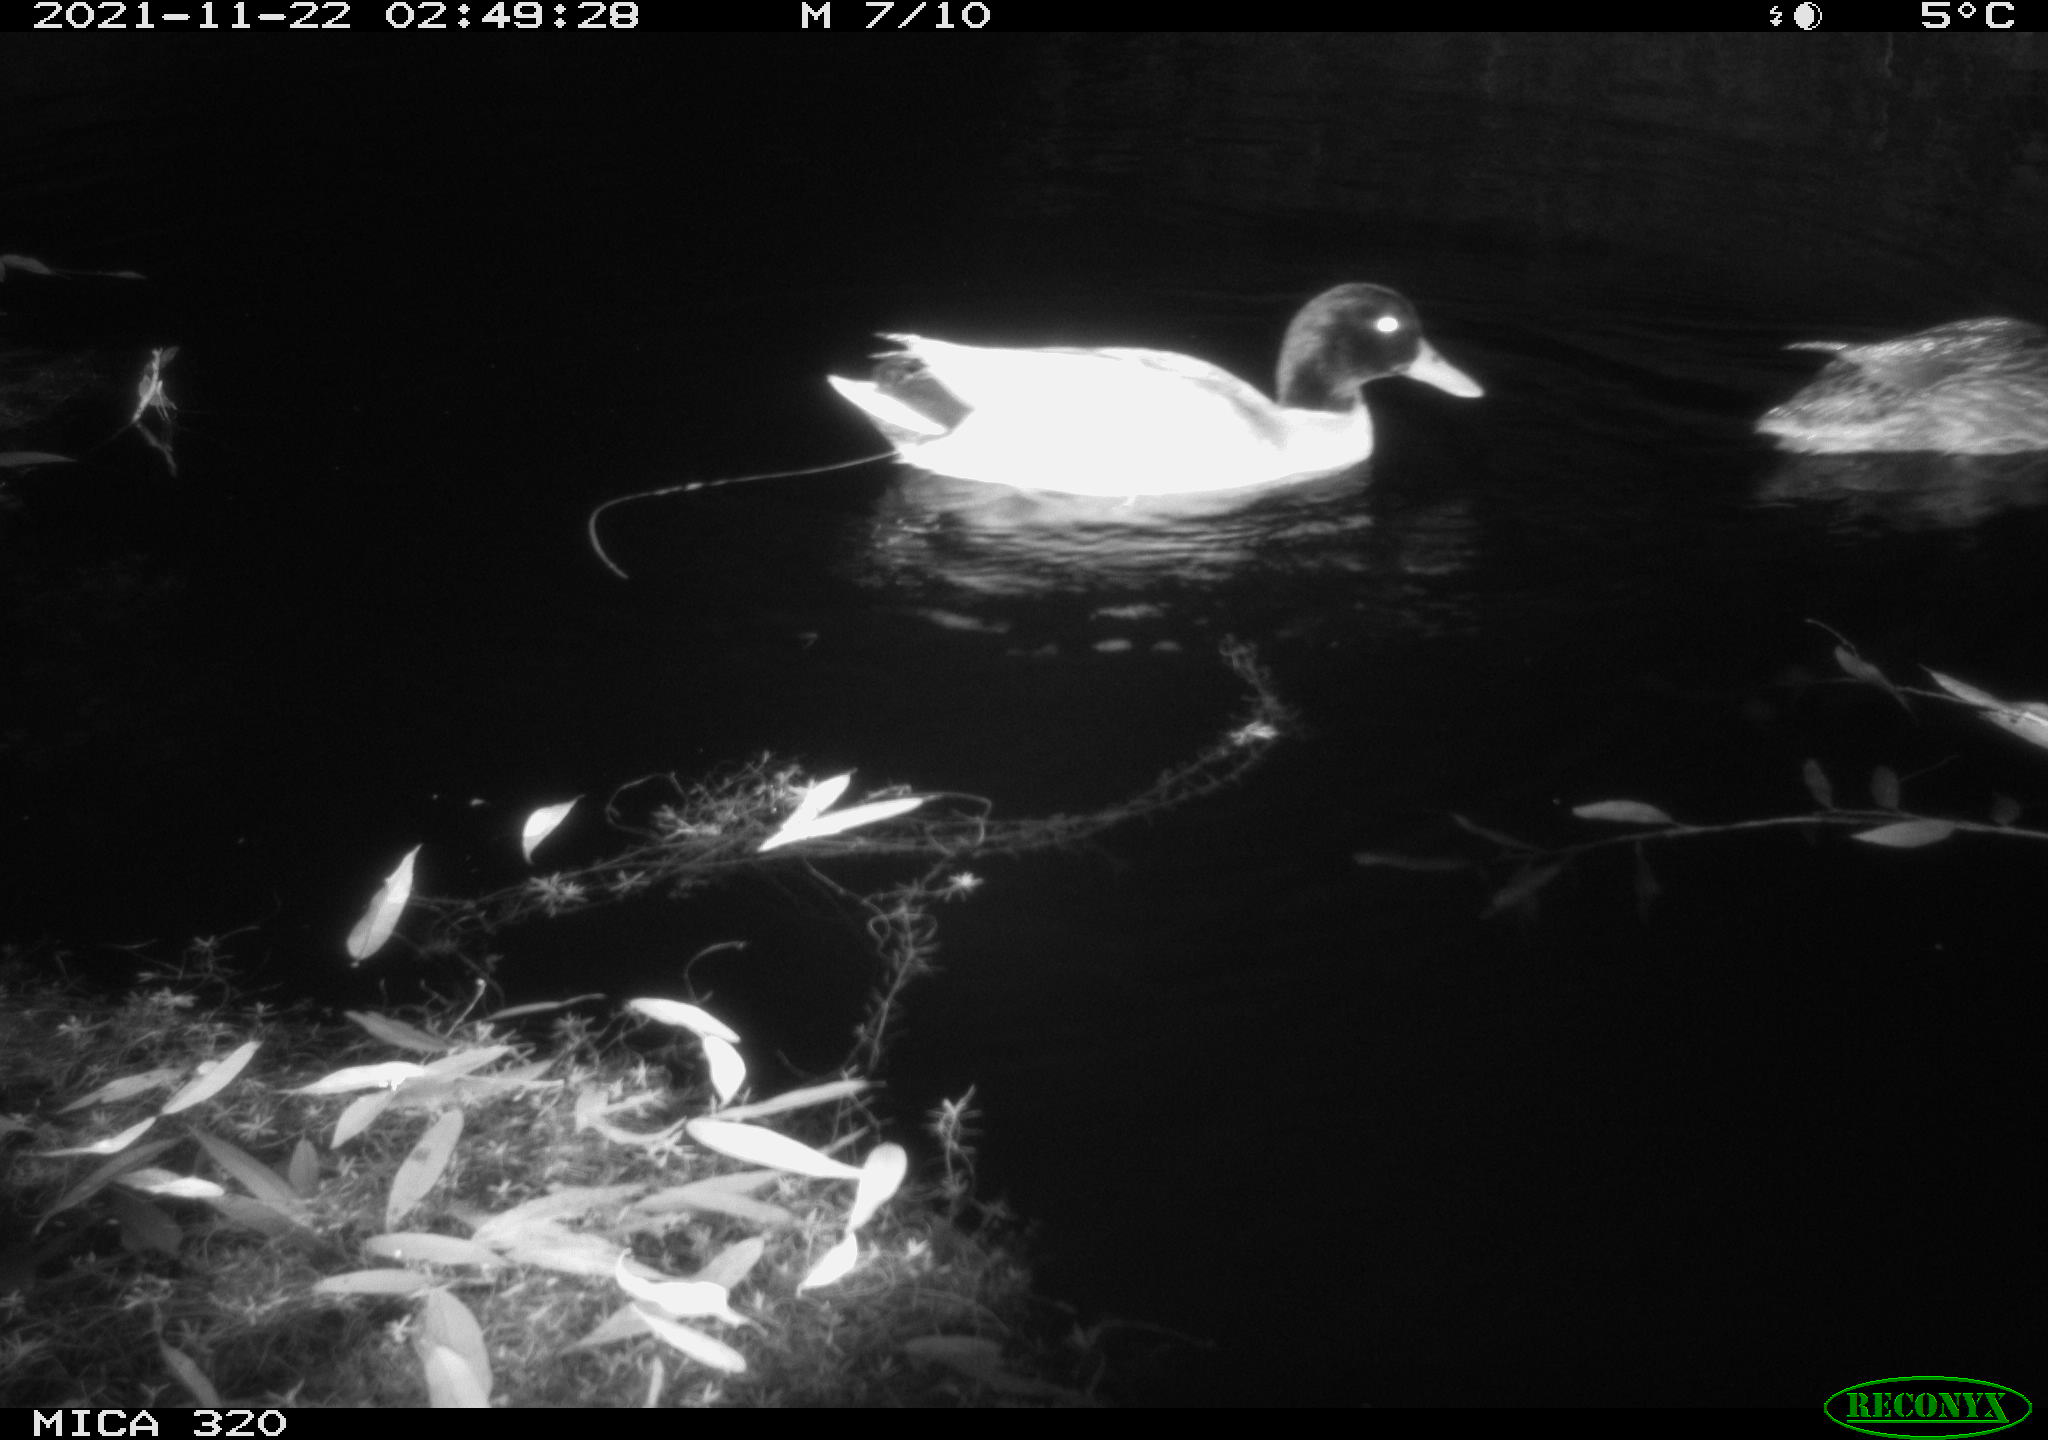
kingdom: Animalia
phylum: Chordata
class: Aves
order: Anseriformes
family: Anatidae
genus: Mareca
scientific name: Mareca strepera
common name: Gadwall
